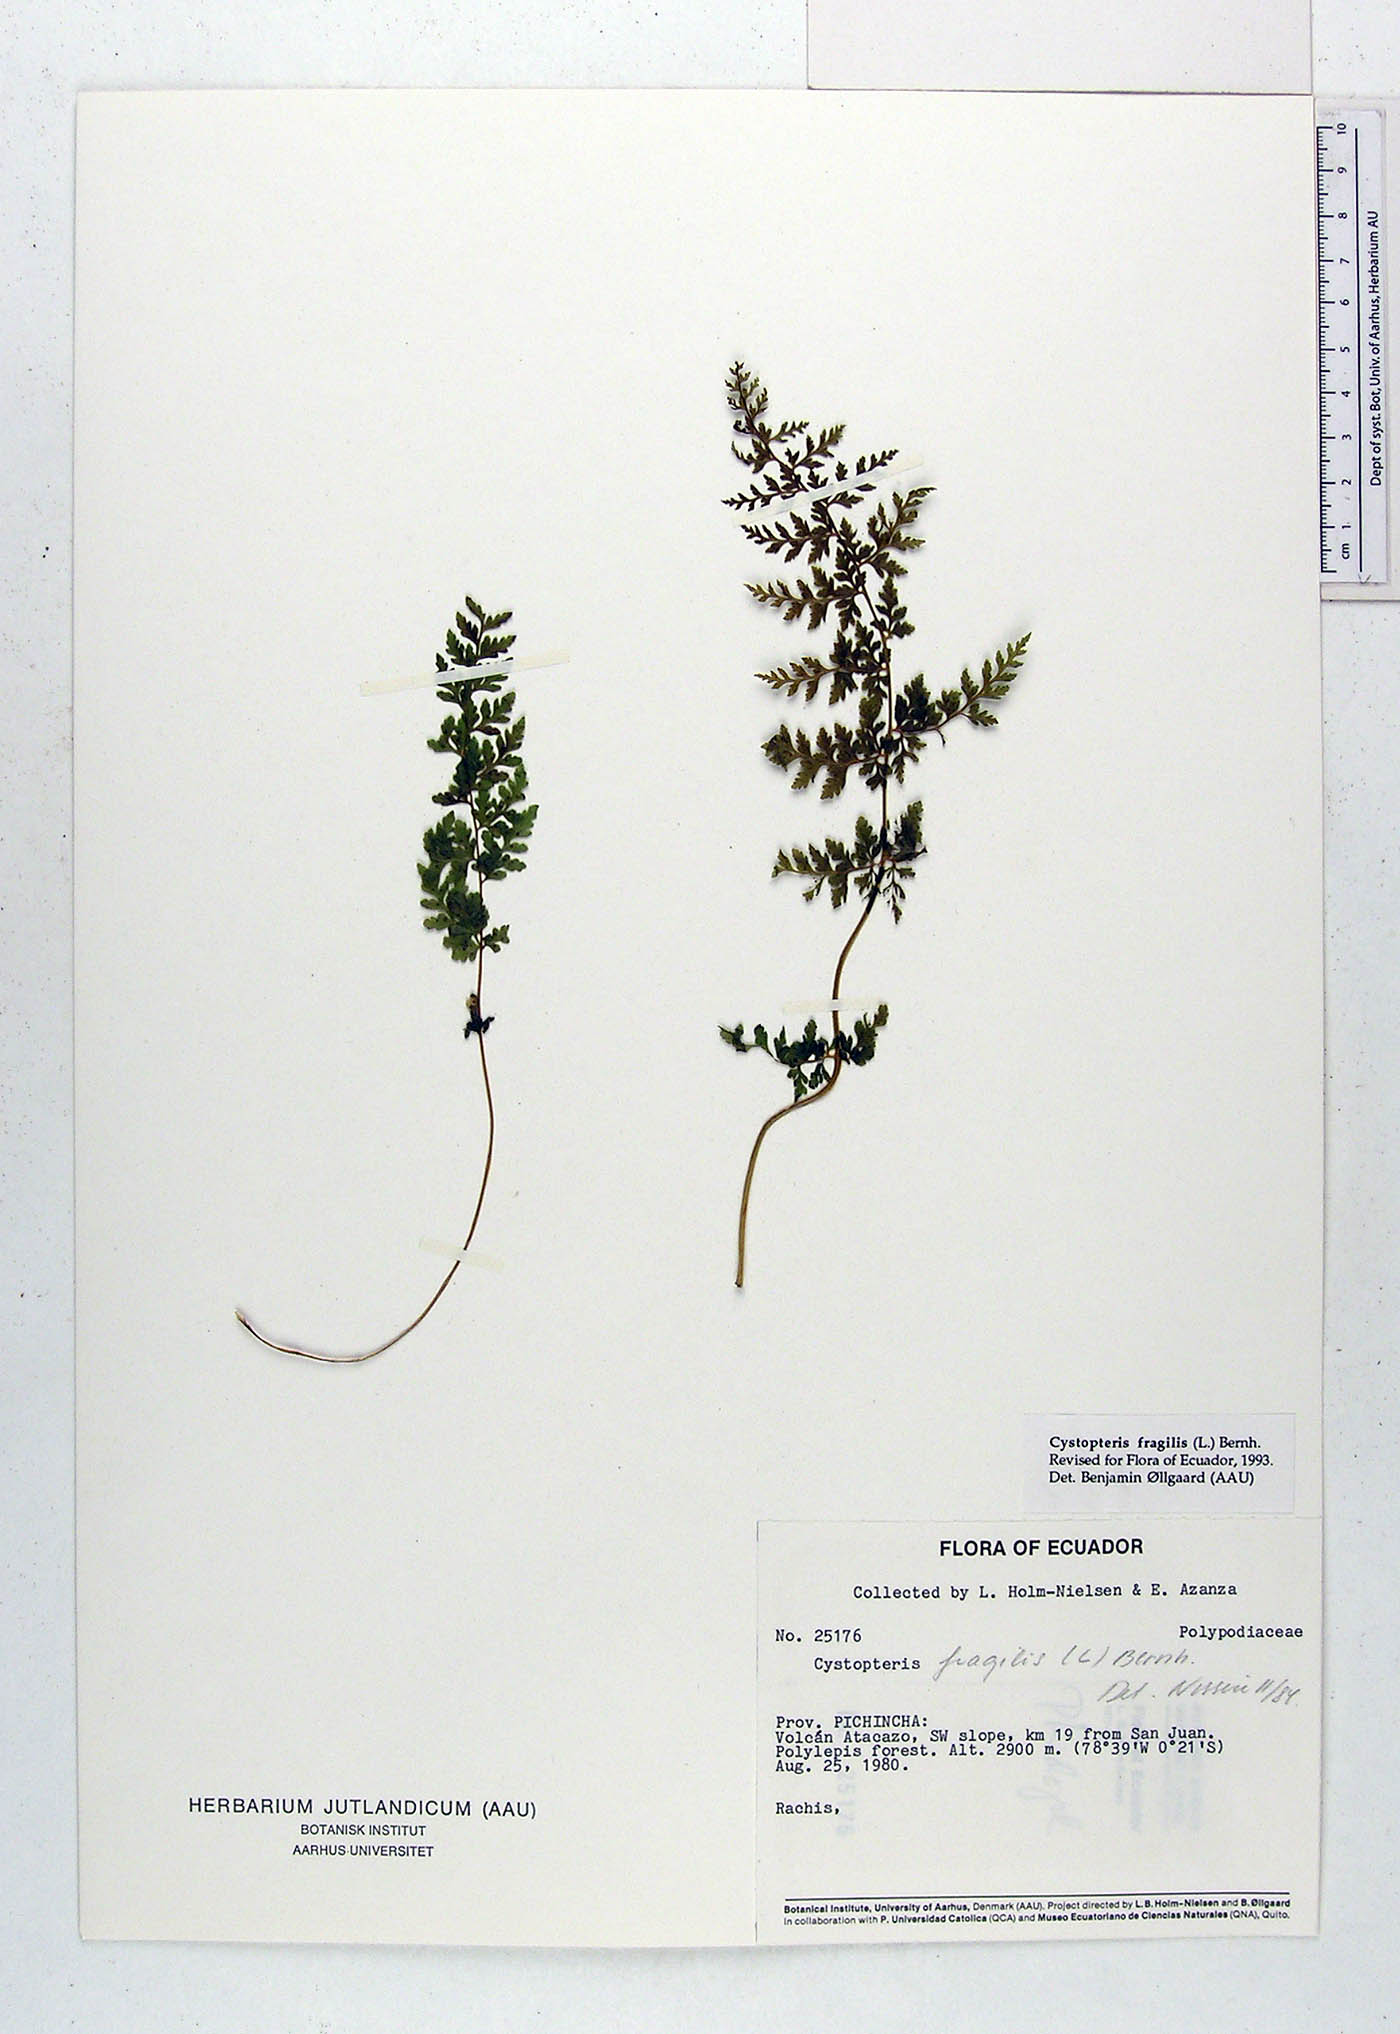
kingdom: Plantae
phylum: Tracheophyta
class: Polypodiopsida
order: Polypodiales
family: Cystopteridaceae
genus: Cystopteris
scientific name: Cystopteris fragilis
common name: Brittle bladder fern
